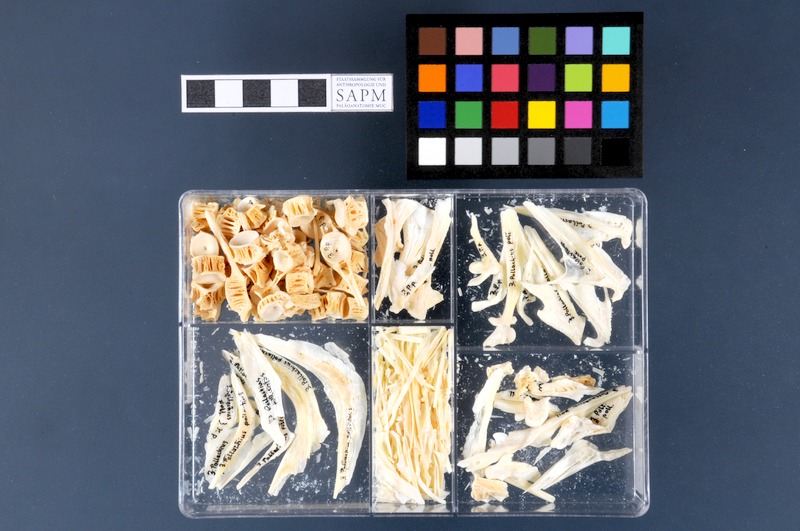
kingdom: Animalia
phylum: Chordata
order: Gadiformes
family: Gadidae
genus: Pollachius
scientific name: Pollachius pollachius
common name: Pollack
